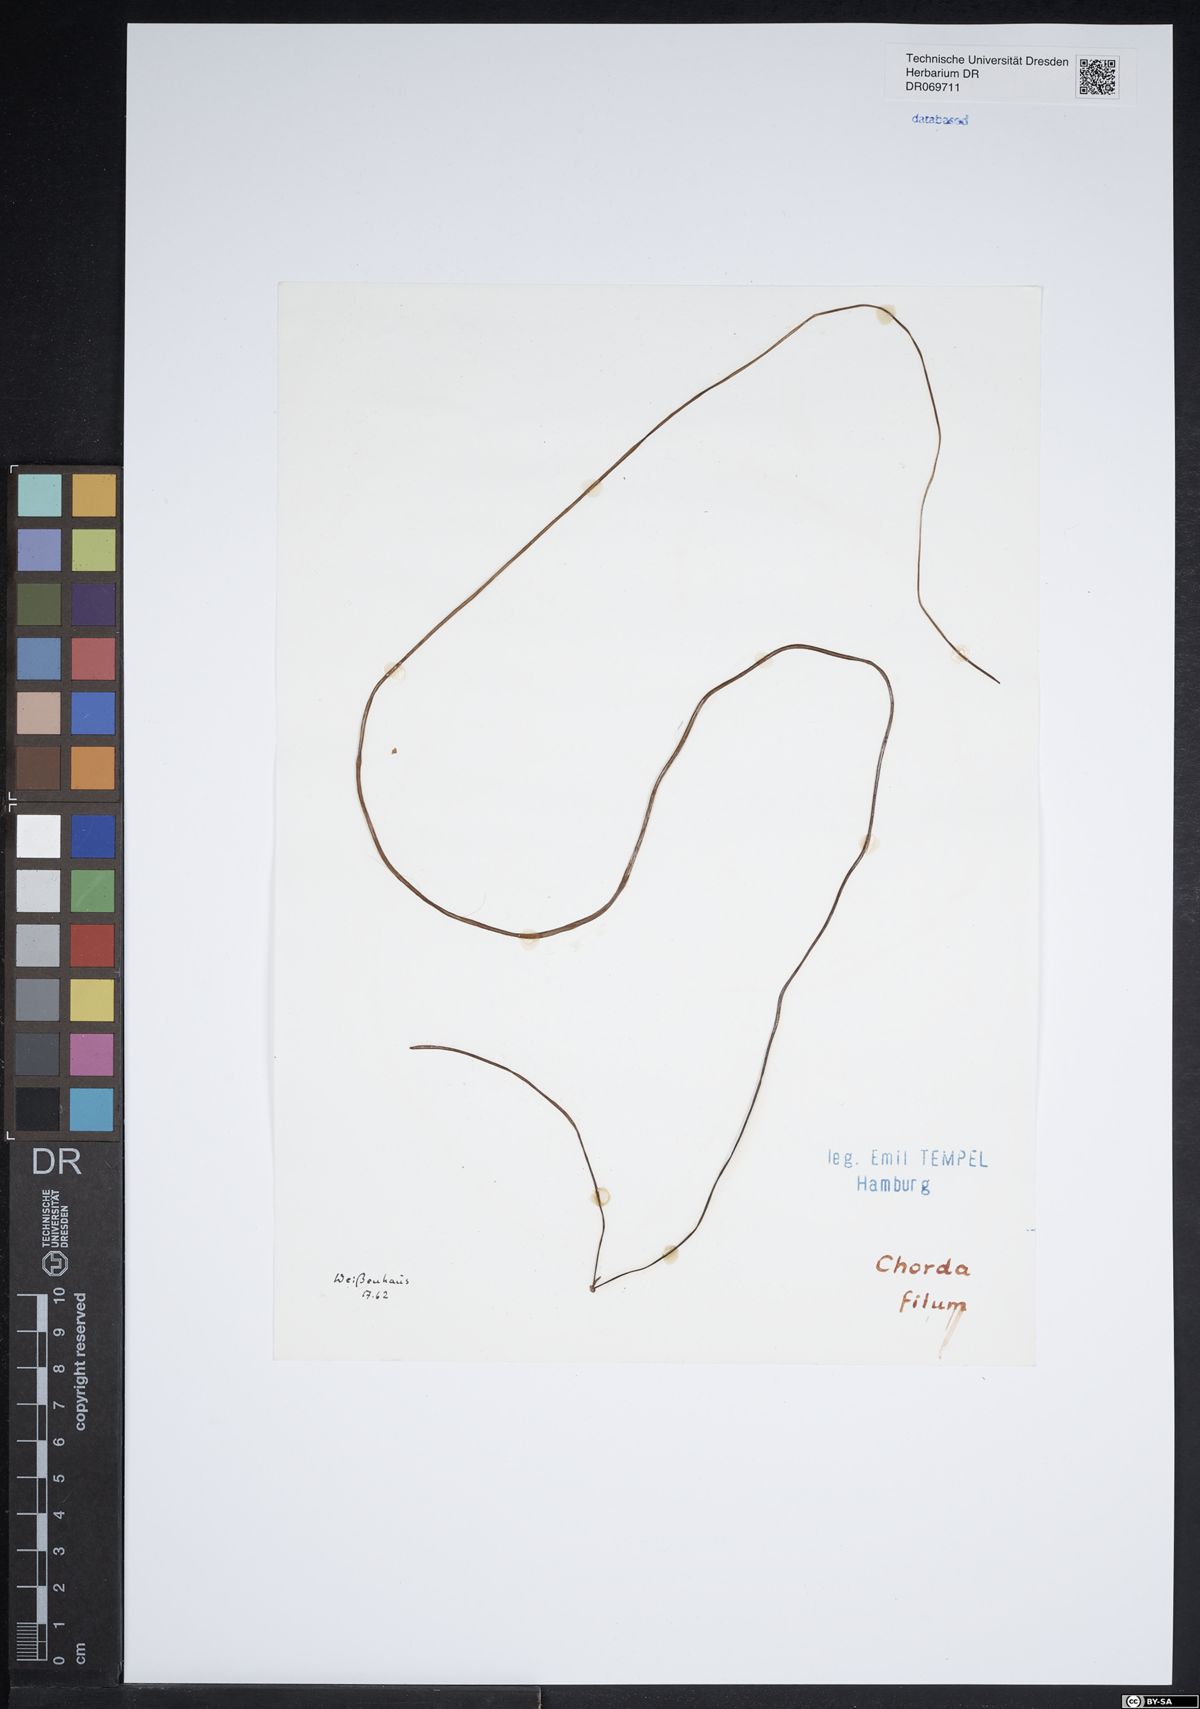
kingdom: Chromista
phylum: Ochrophyta
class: Phaeophyceae
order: Laminariales
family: Chordaceae
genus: Chorda
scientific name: Chorda filum
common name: Mermaid's tresses
